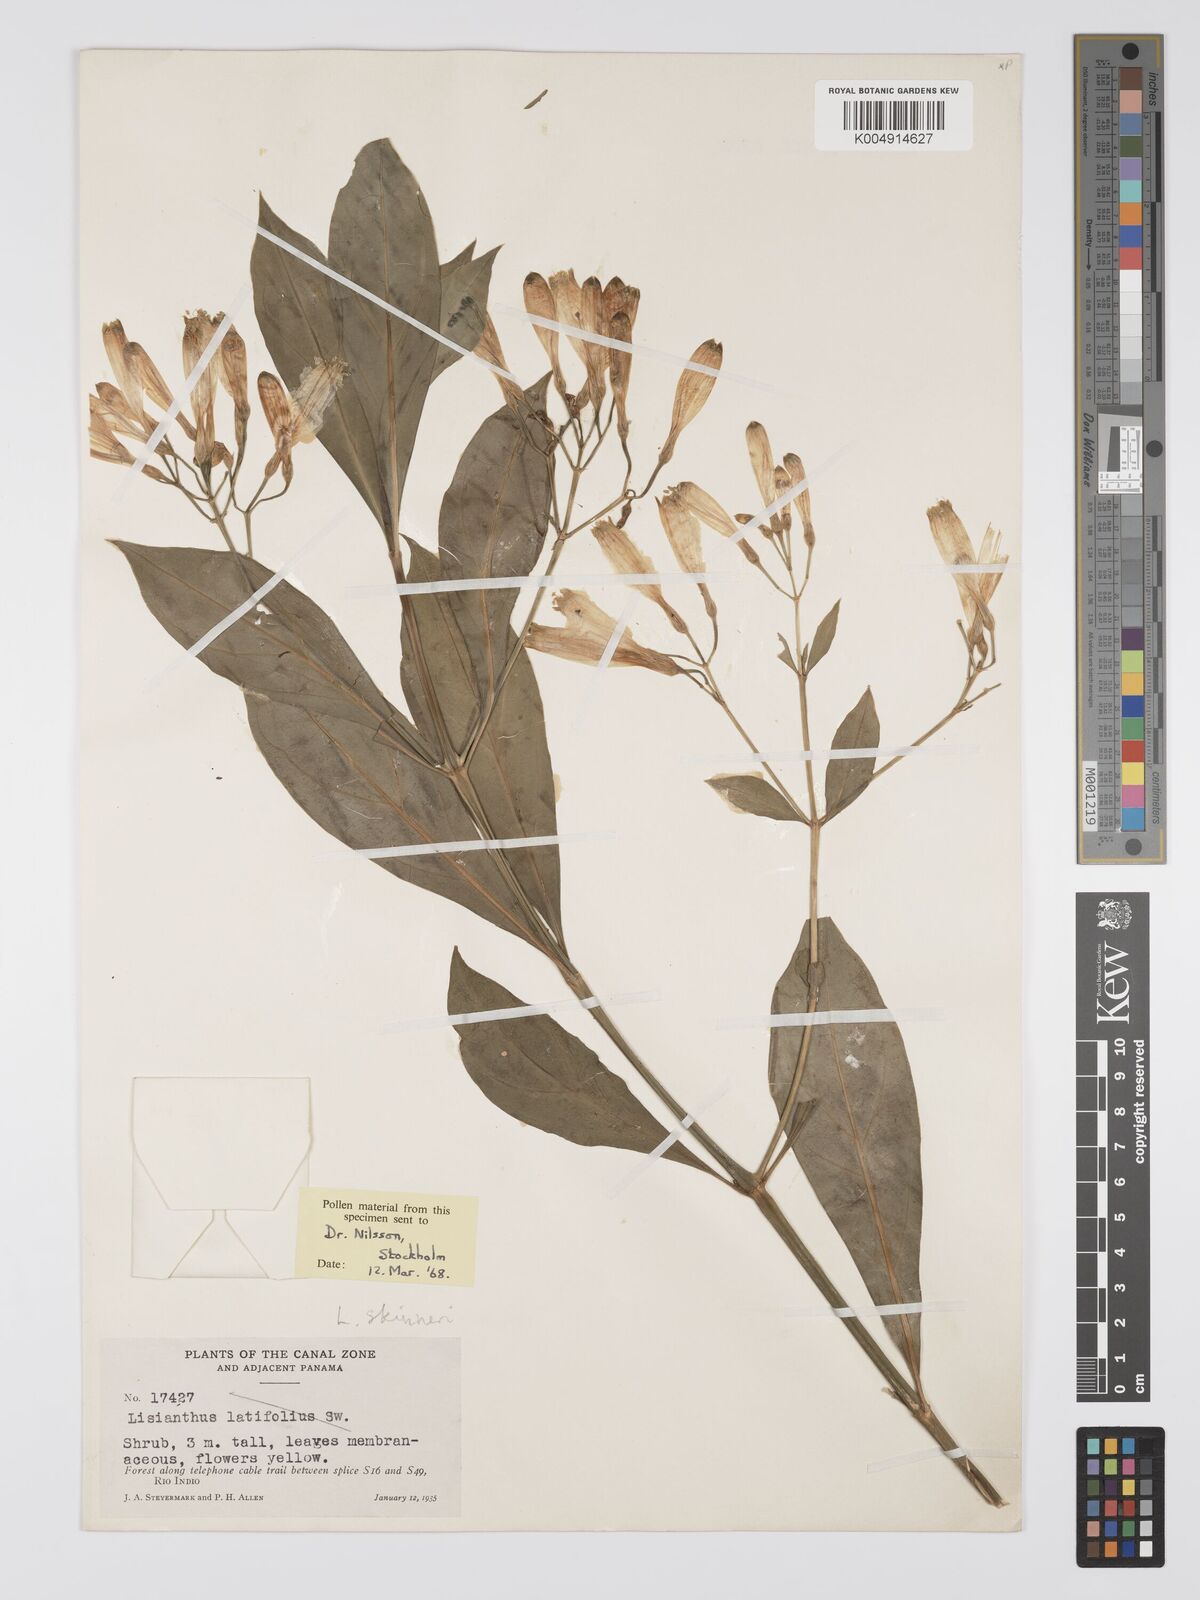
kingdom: Plantae
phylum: Tracheophyta
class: Magnoliopsida
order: Gentianales
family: Gentianaceae
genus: Lisianthus
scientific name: Lisianthus skinneri
